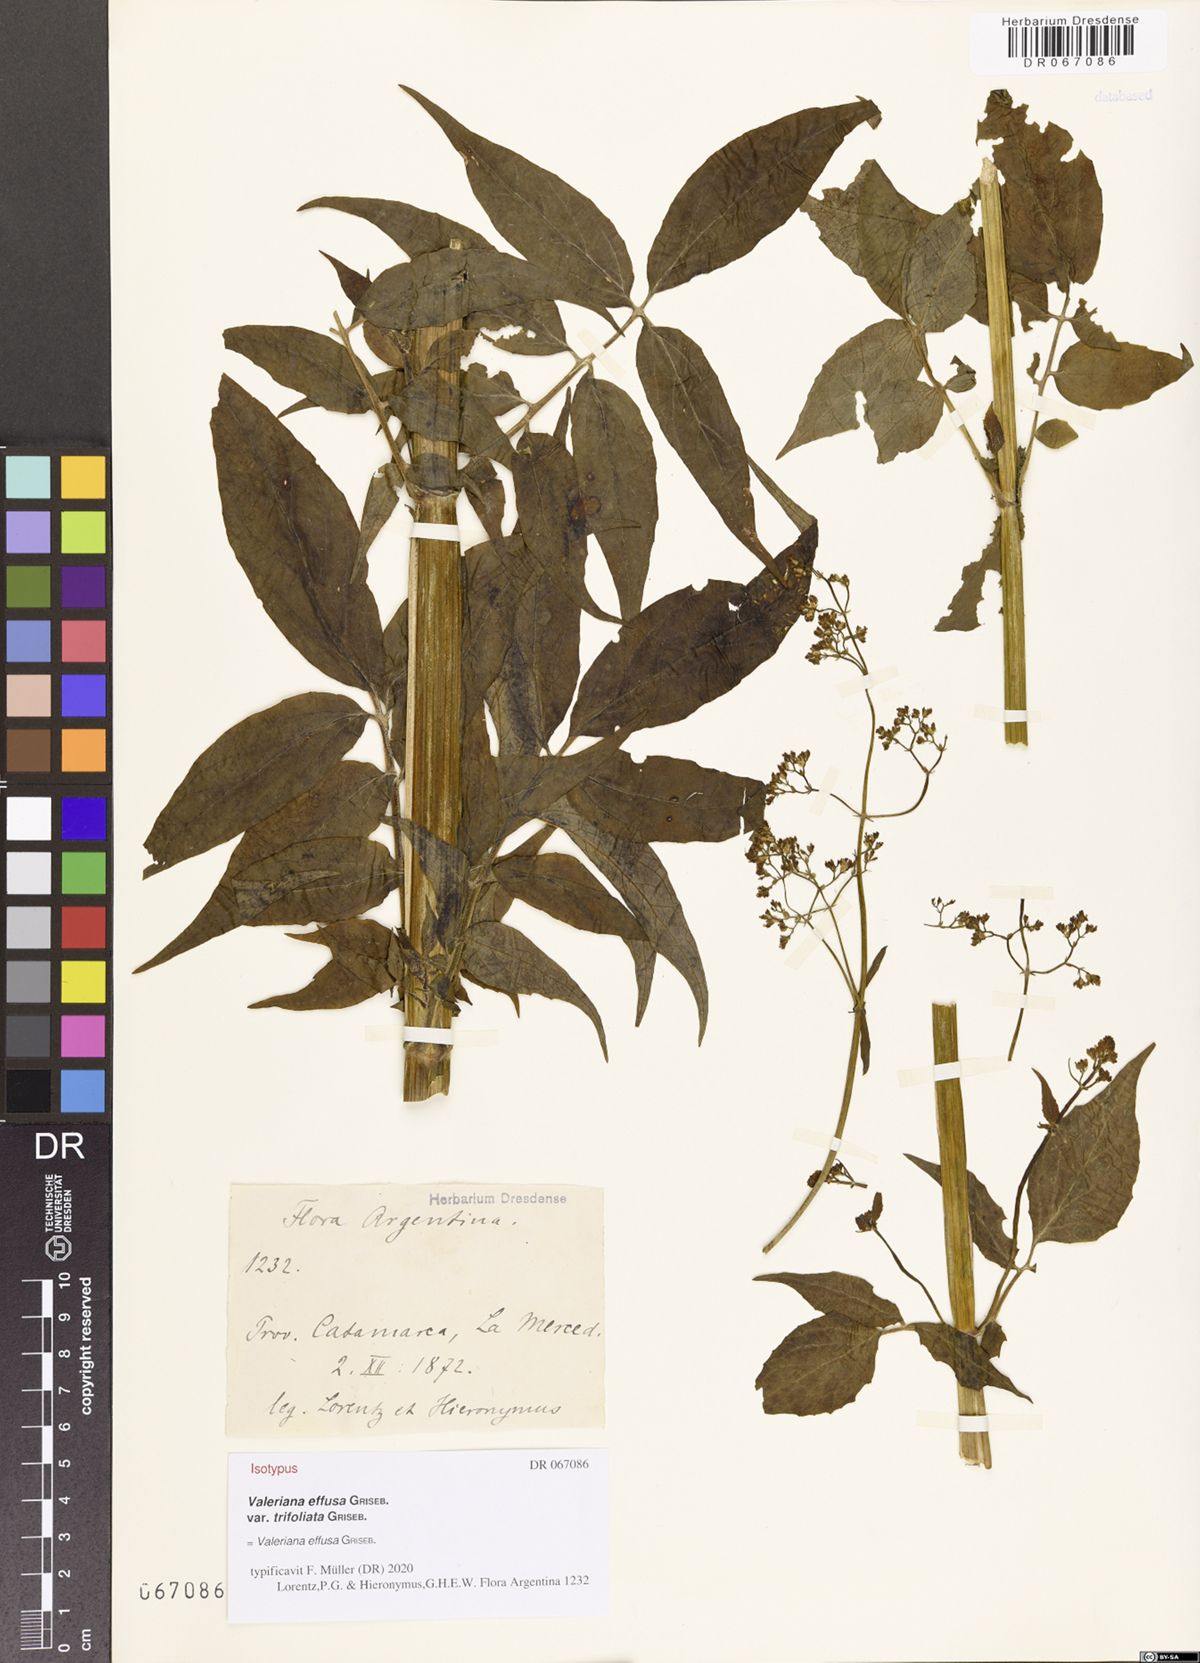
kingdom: Plantae
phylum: Tracheophyta
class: Magnoliopsida
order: Dipsacales
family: Caprifoliaceae
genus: Valeriana
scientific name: Valeriana effusa
